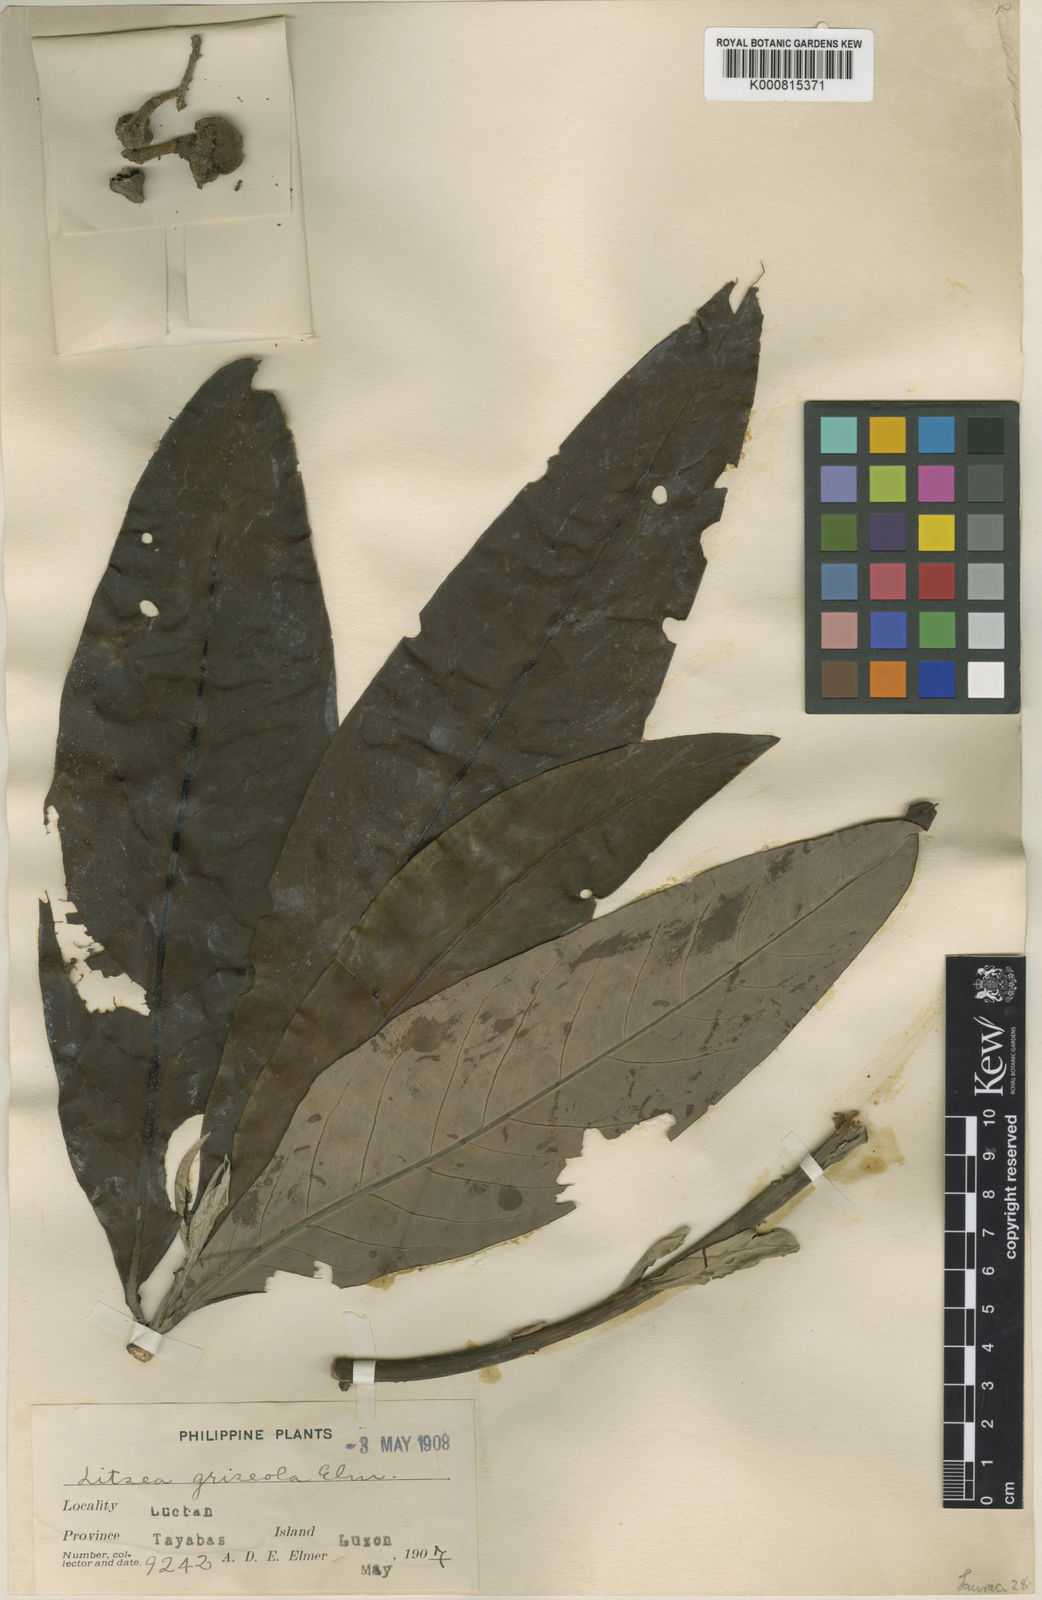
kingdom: Plantae
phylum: Tracheophyta
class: Magnoliopsida
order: Laurales
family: Lauraceae
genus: Litsea
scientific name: Litsea garciae
